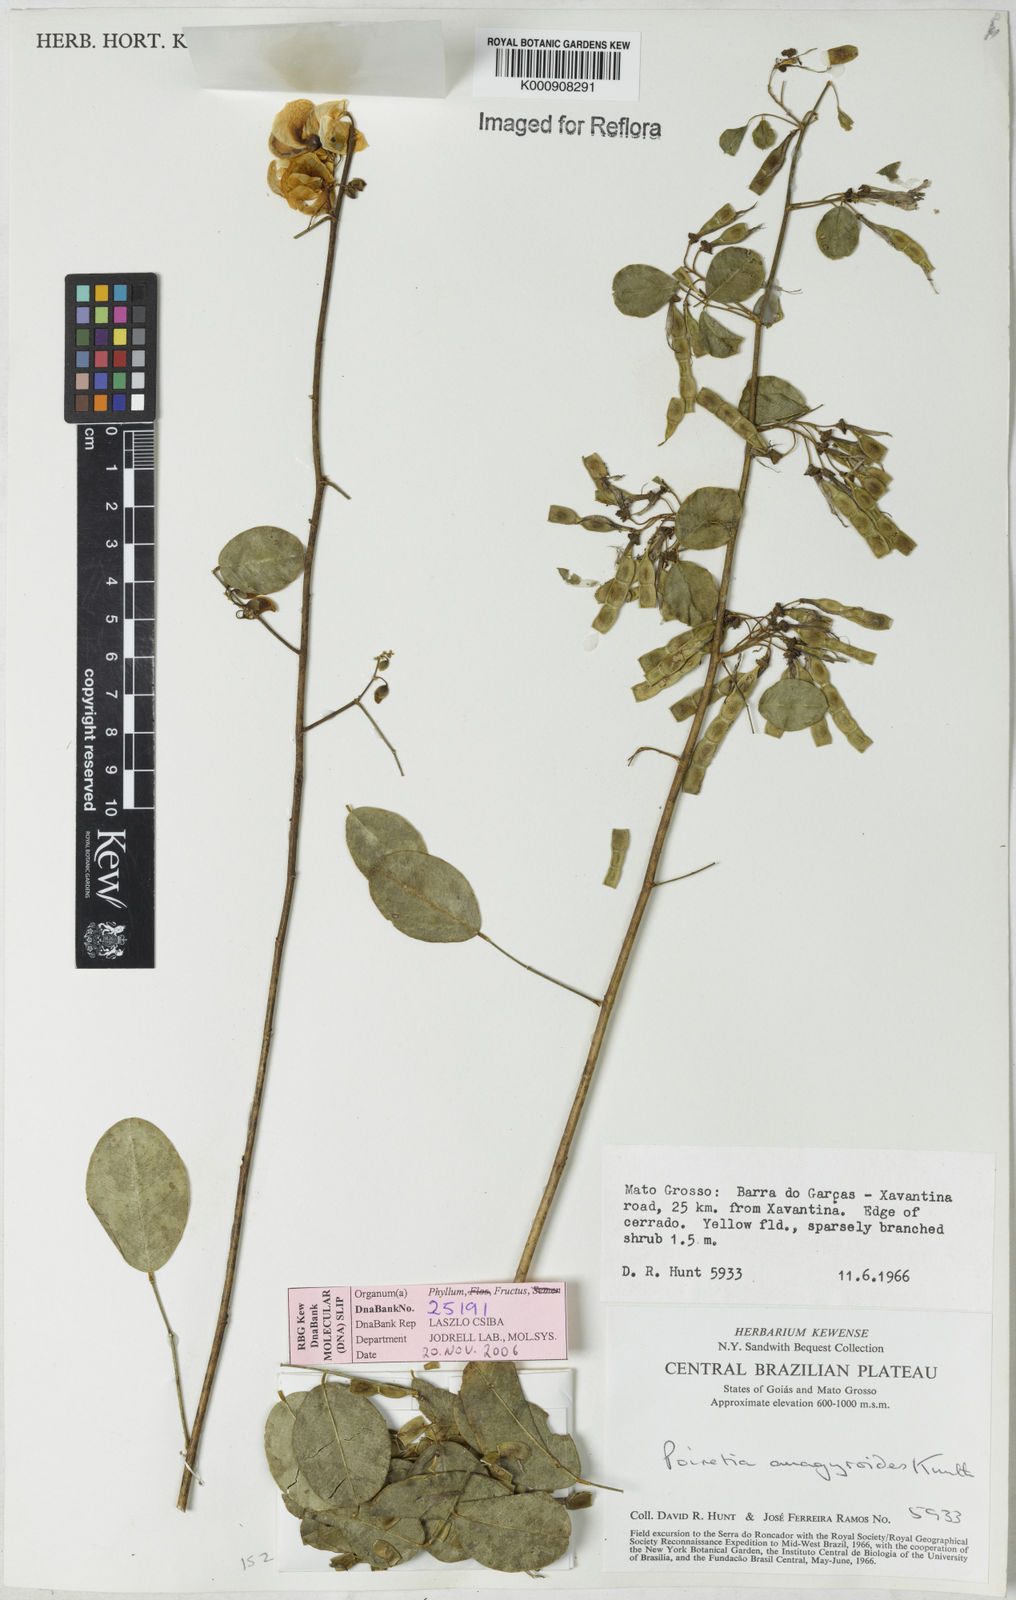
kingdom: Plantae
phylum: Tracheophyta
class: Magnoliopsida
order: Fabales
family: Fabaceae
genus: Poiretia
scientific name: Poiretia
